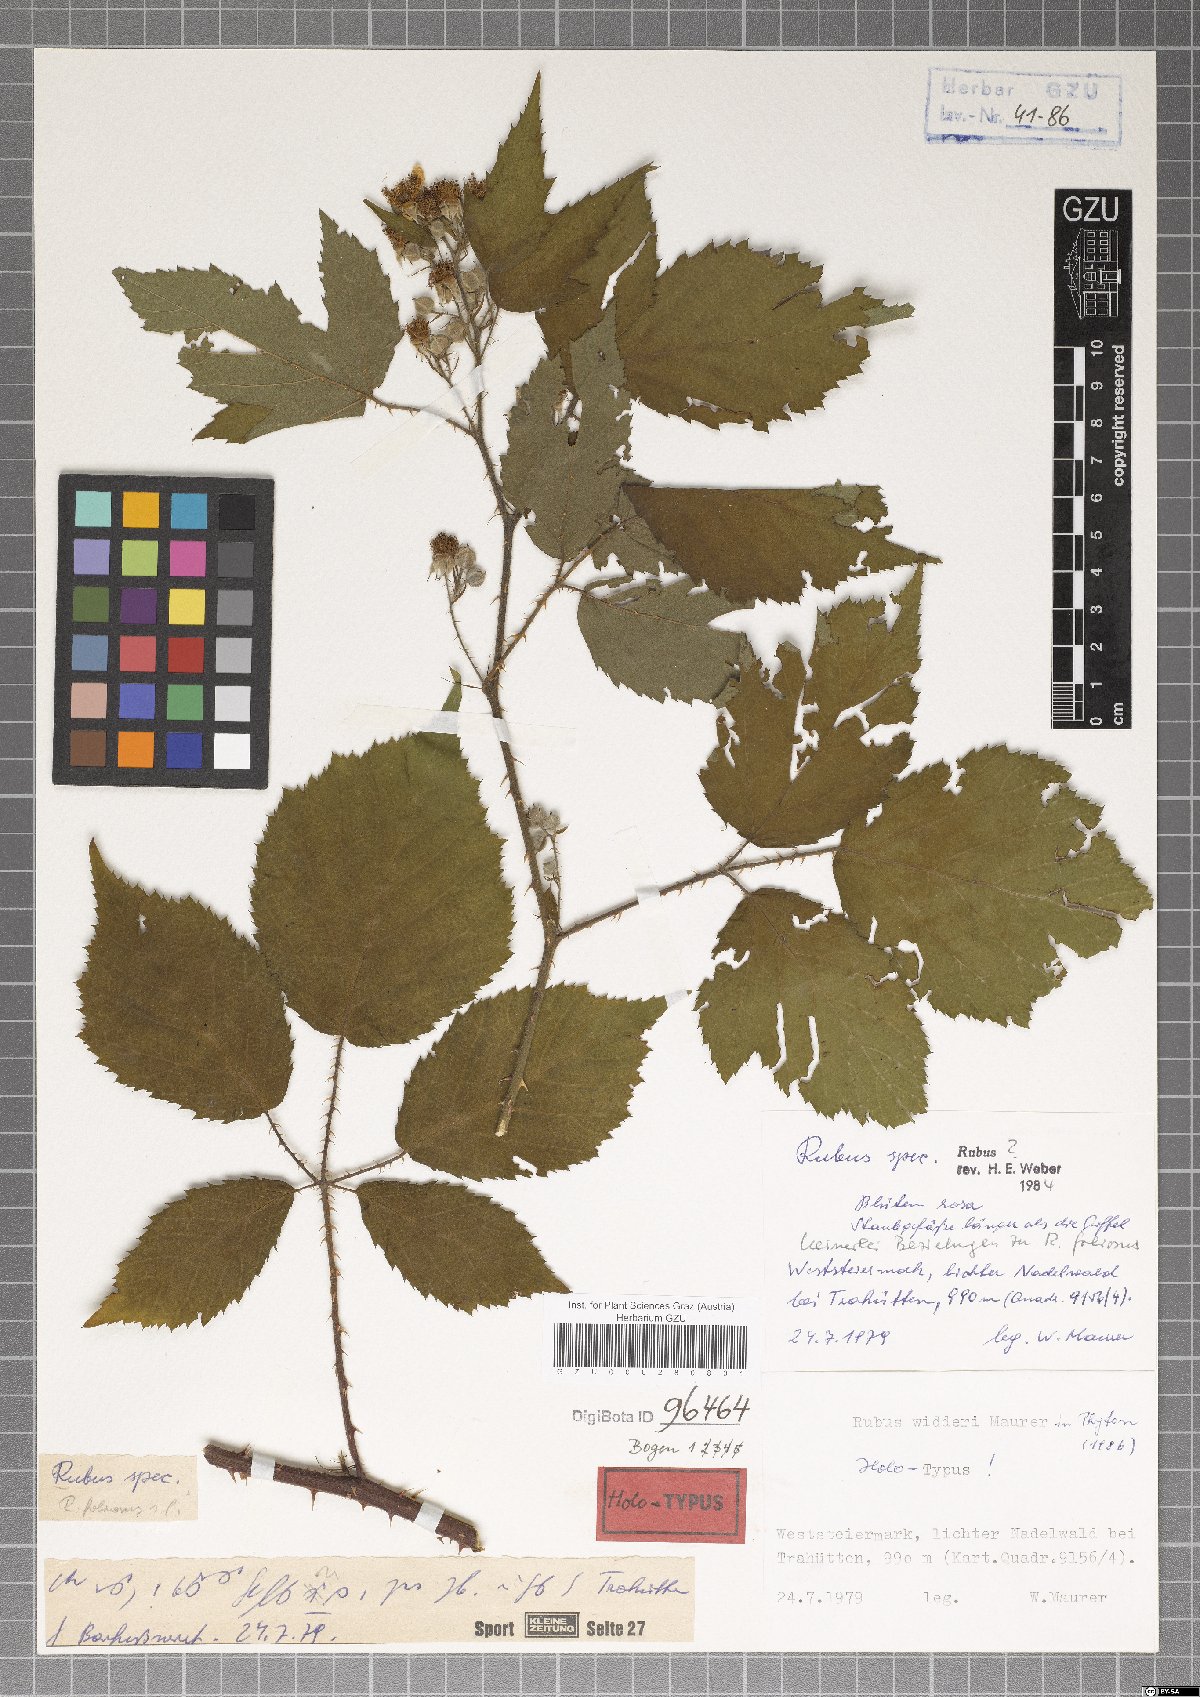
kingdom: Plantae
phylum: Tracheophyta
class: Magnoliopsida
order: Rosales
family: Rosaceae
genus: Rubus
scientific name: Rubus widderi
